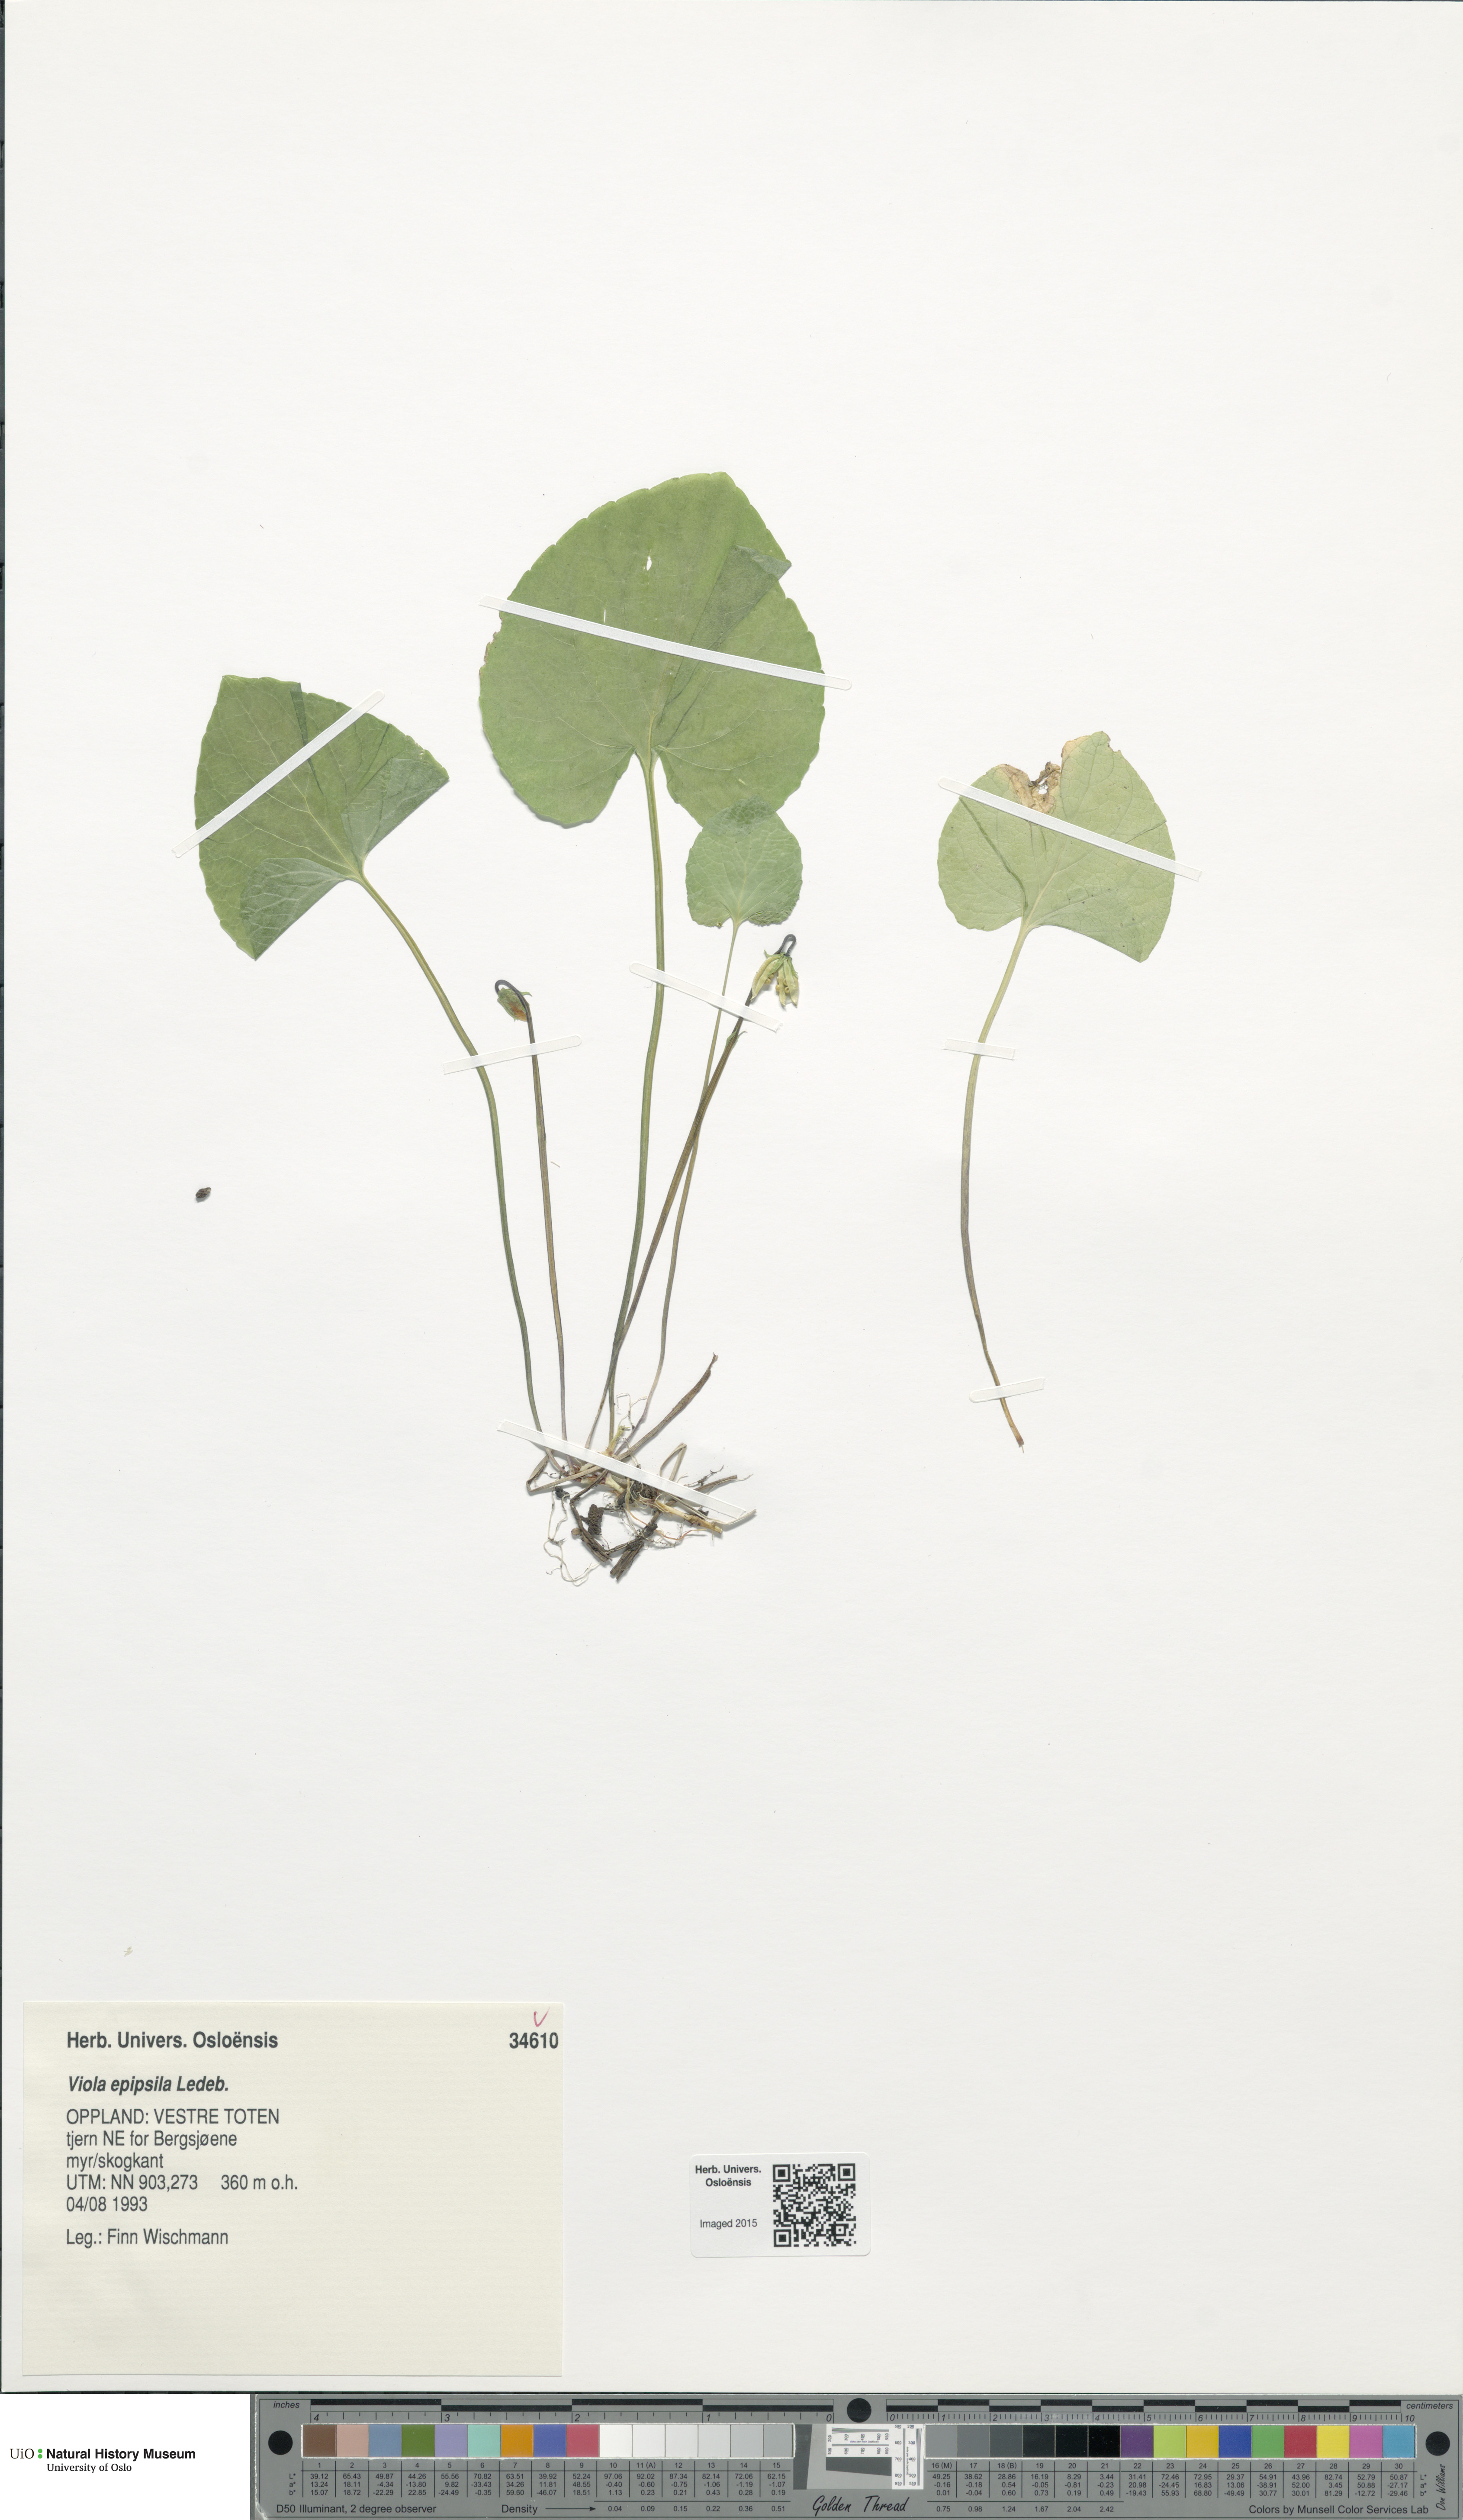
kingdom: Plantae
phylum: Tracheophyta
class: Magnoliopsida
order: Malpighiales
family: Violaceae
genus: Viola
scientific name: Viola epipsila
